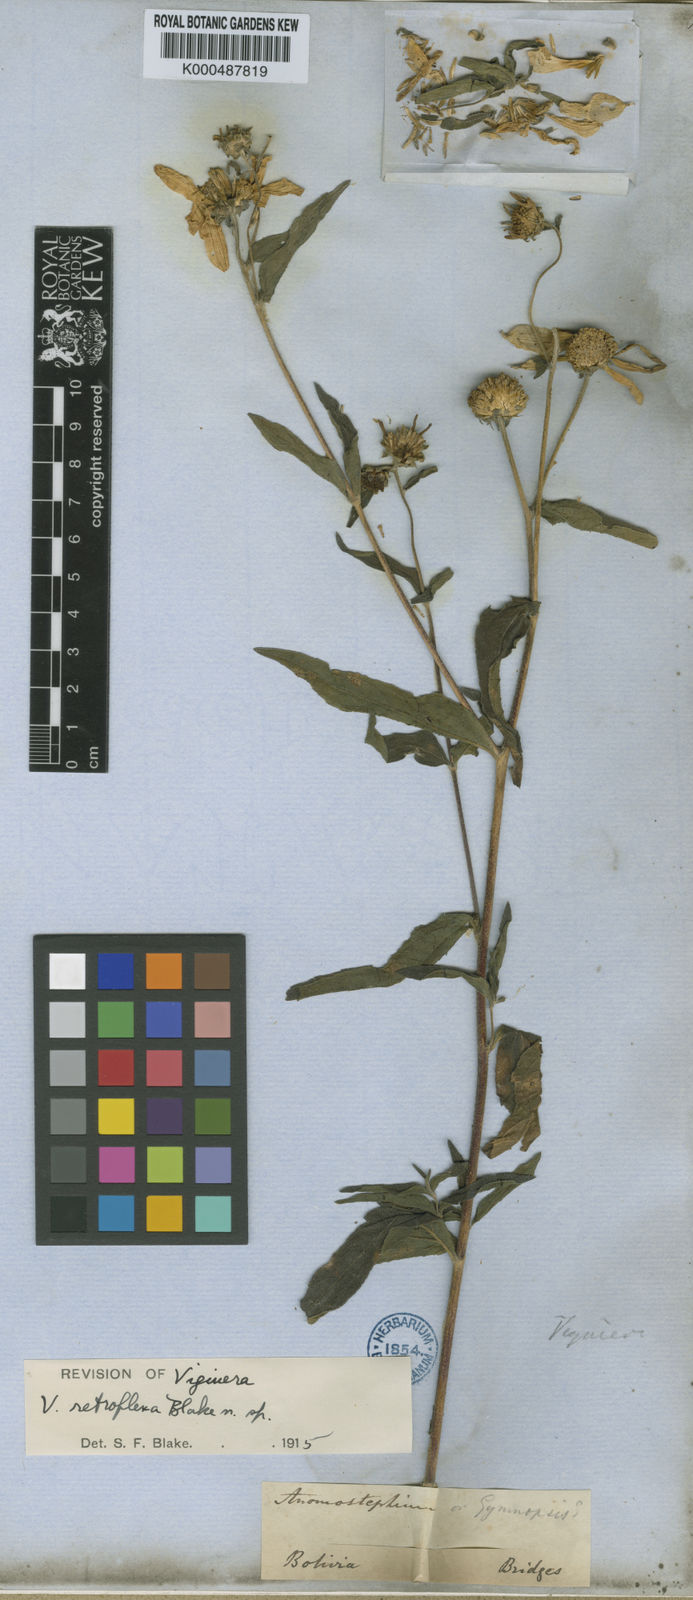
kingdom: Plantae
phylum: Tracheophyta
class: Magnoliopsida
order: Asterales
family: Asteraceae
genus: Aldama
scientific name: Aldama retroflexa
